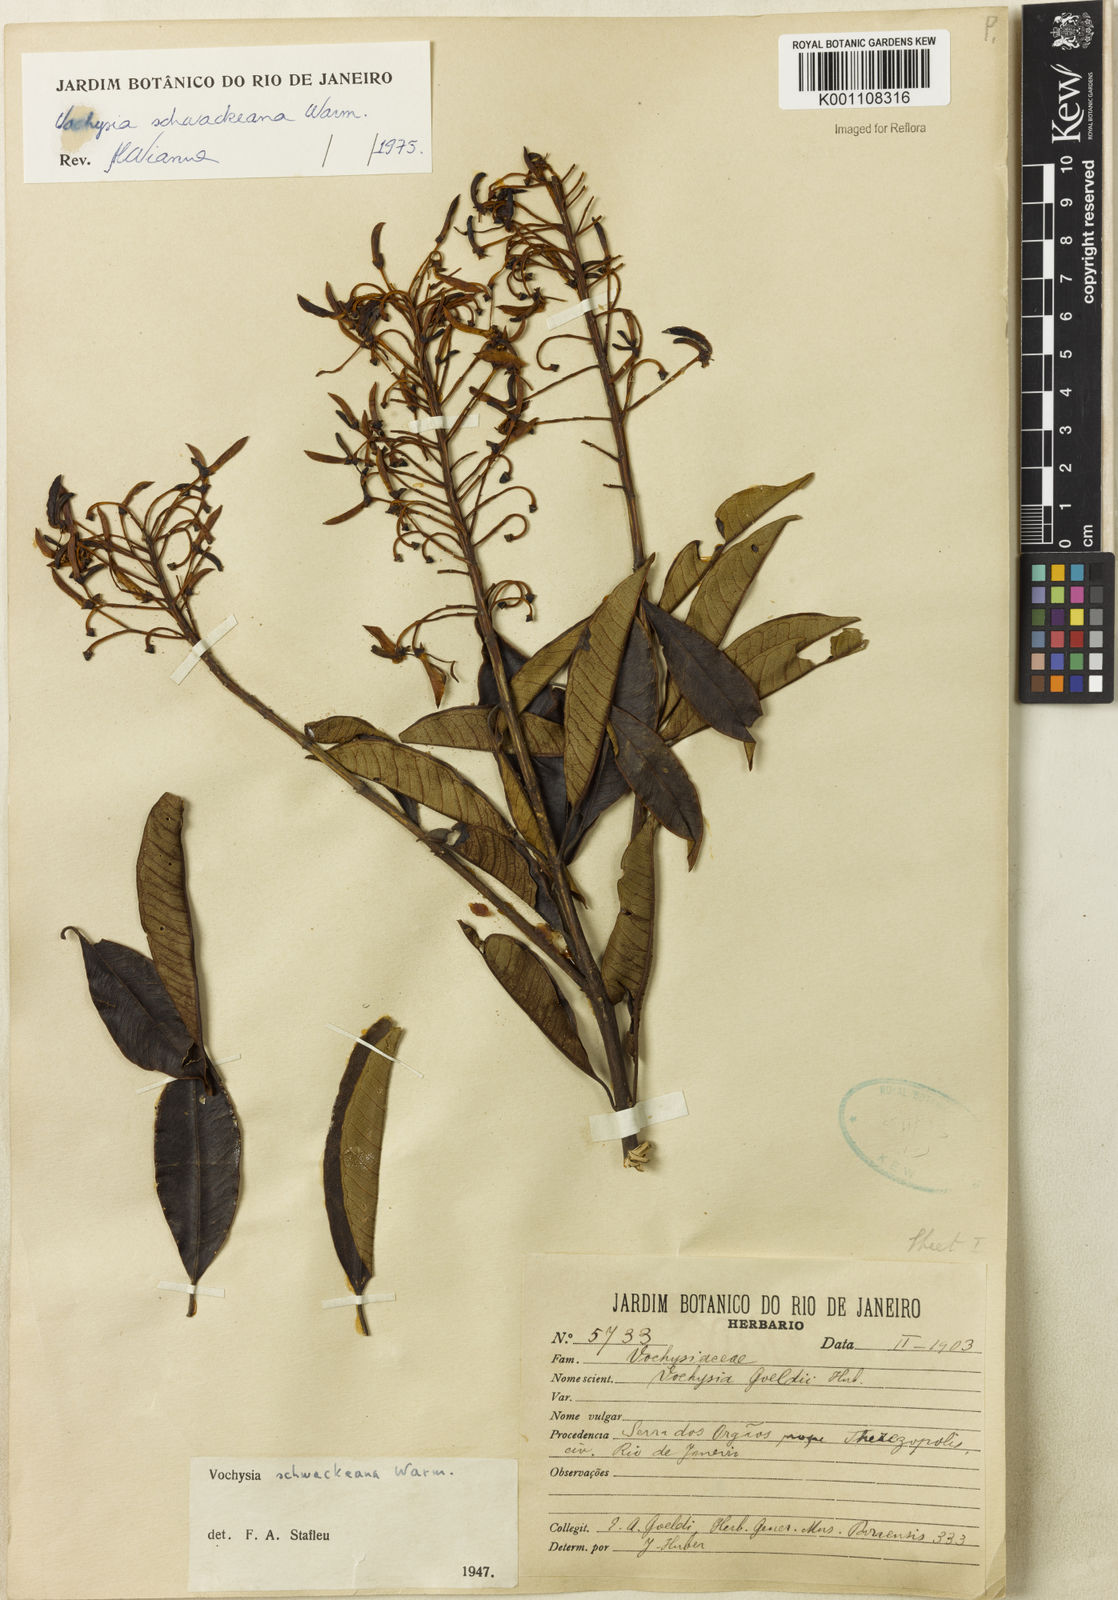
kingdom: Plantae
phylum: Tracheophyta
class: Magnoliopsida
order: Myrtales
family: Vochysiaceae
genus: Vochysia
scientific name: Vochysia saldanhana
